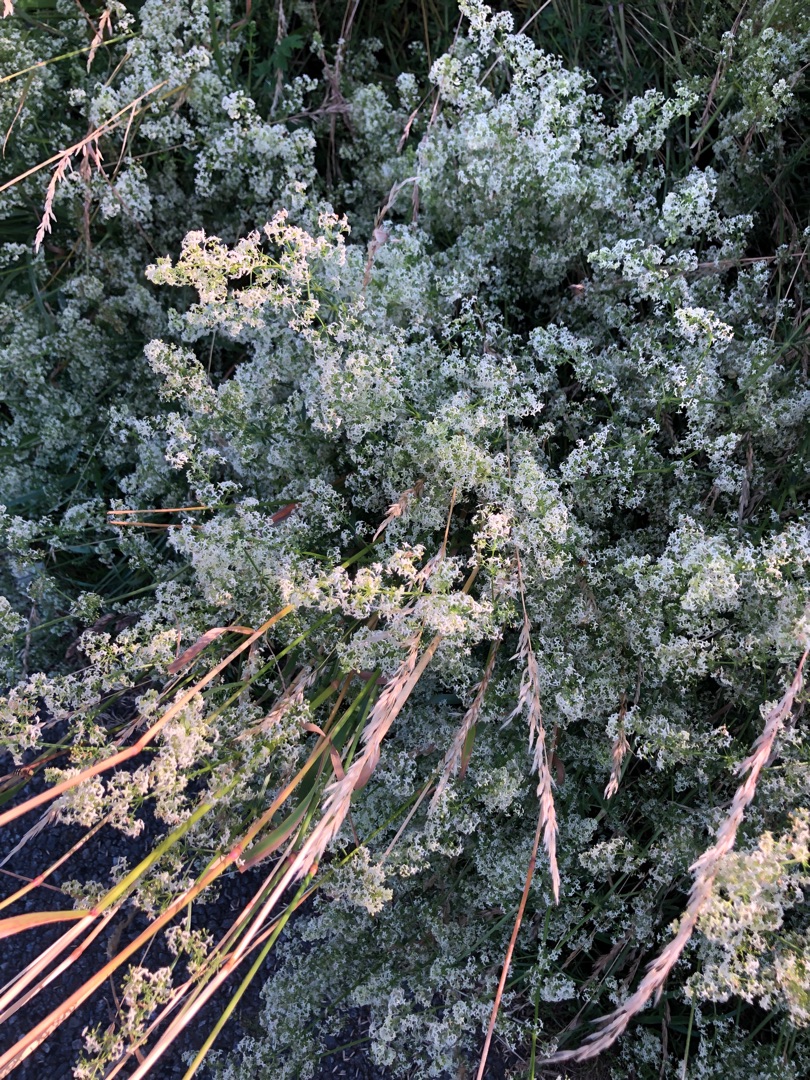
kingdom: Plantae
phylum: Tracheophyta
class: Magnoliopsida
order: Gentianales
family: Rubiaceae
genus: Galium
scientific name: Galium mollugo
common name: Hvid snerre
